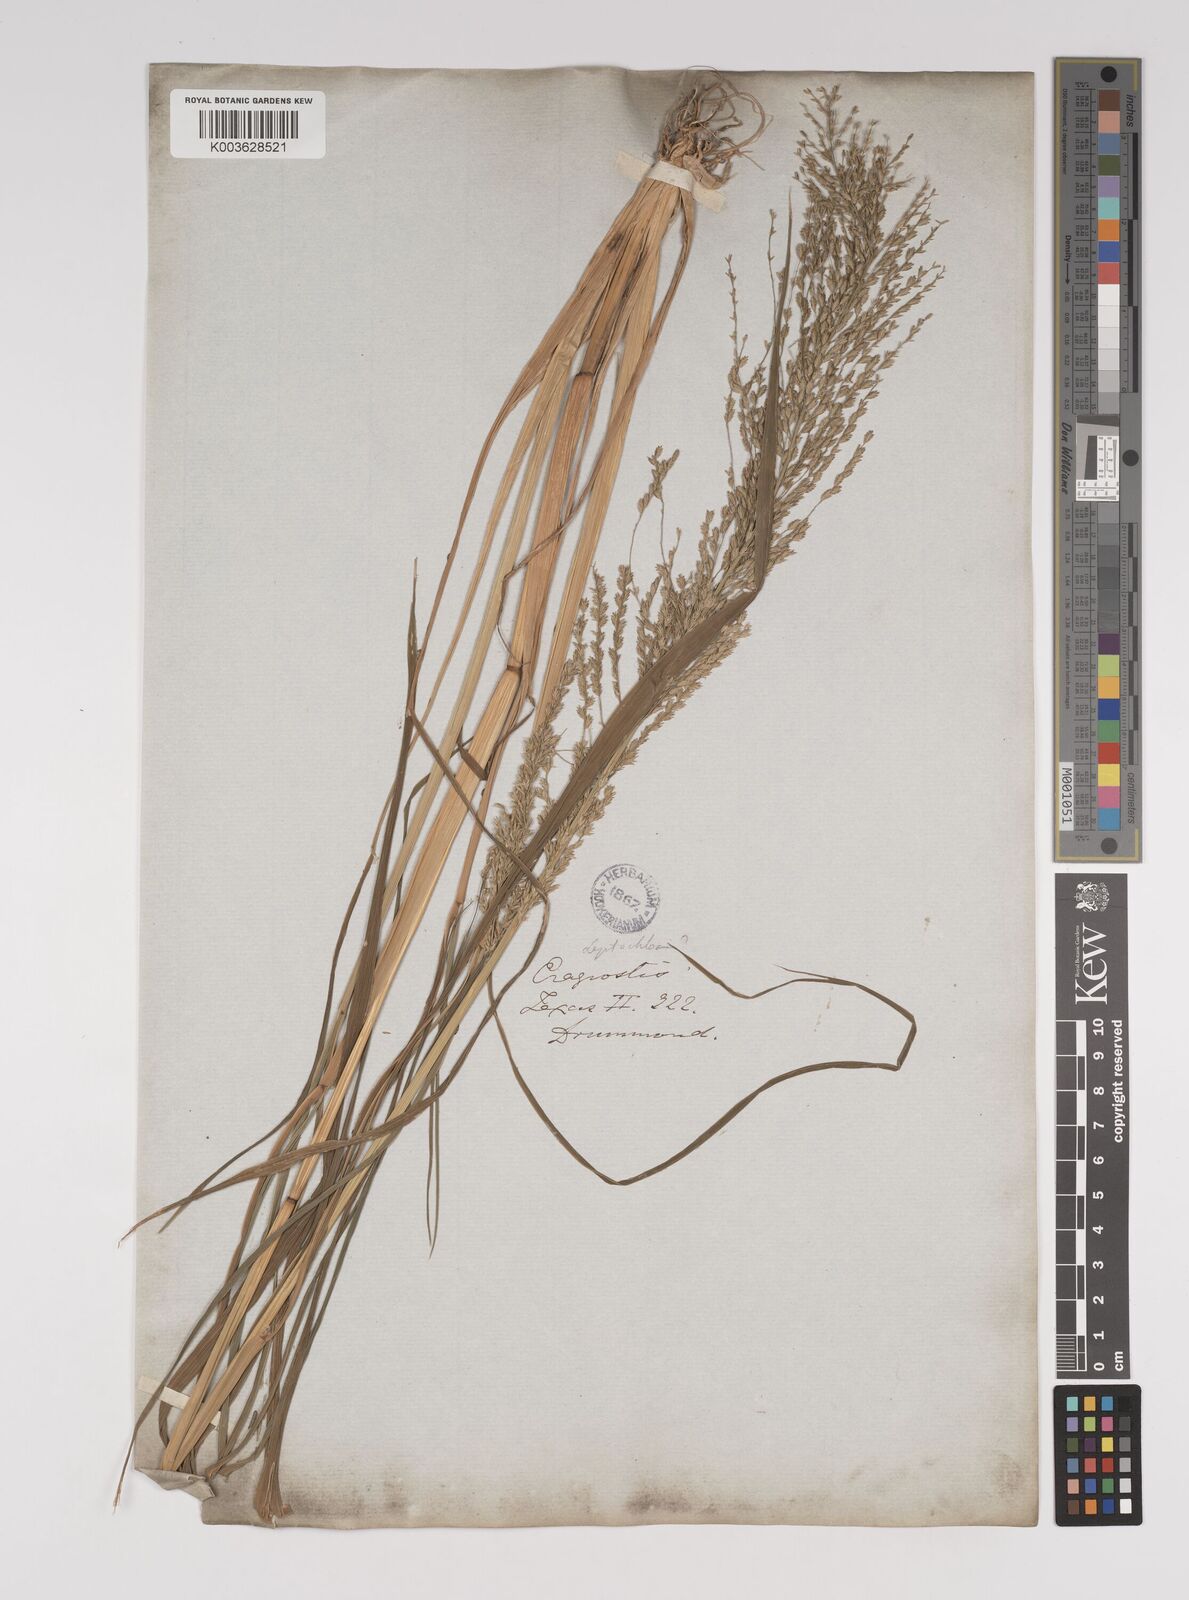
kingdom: Plantae
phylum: Tracheophyta
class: Liliopsida
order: Poales
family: Poaceae
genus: Leptochloa
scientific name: Leptochloa panicoides
